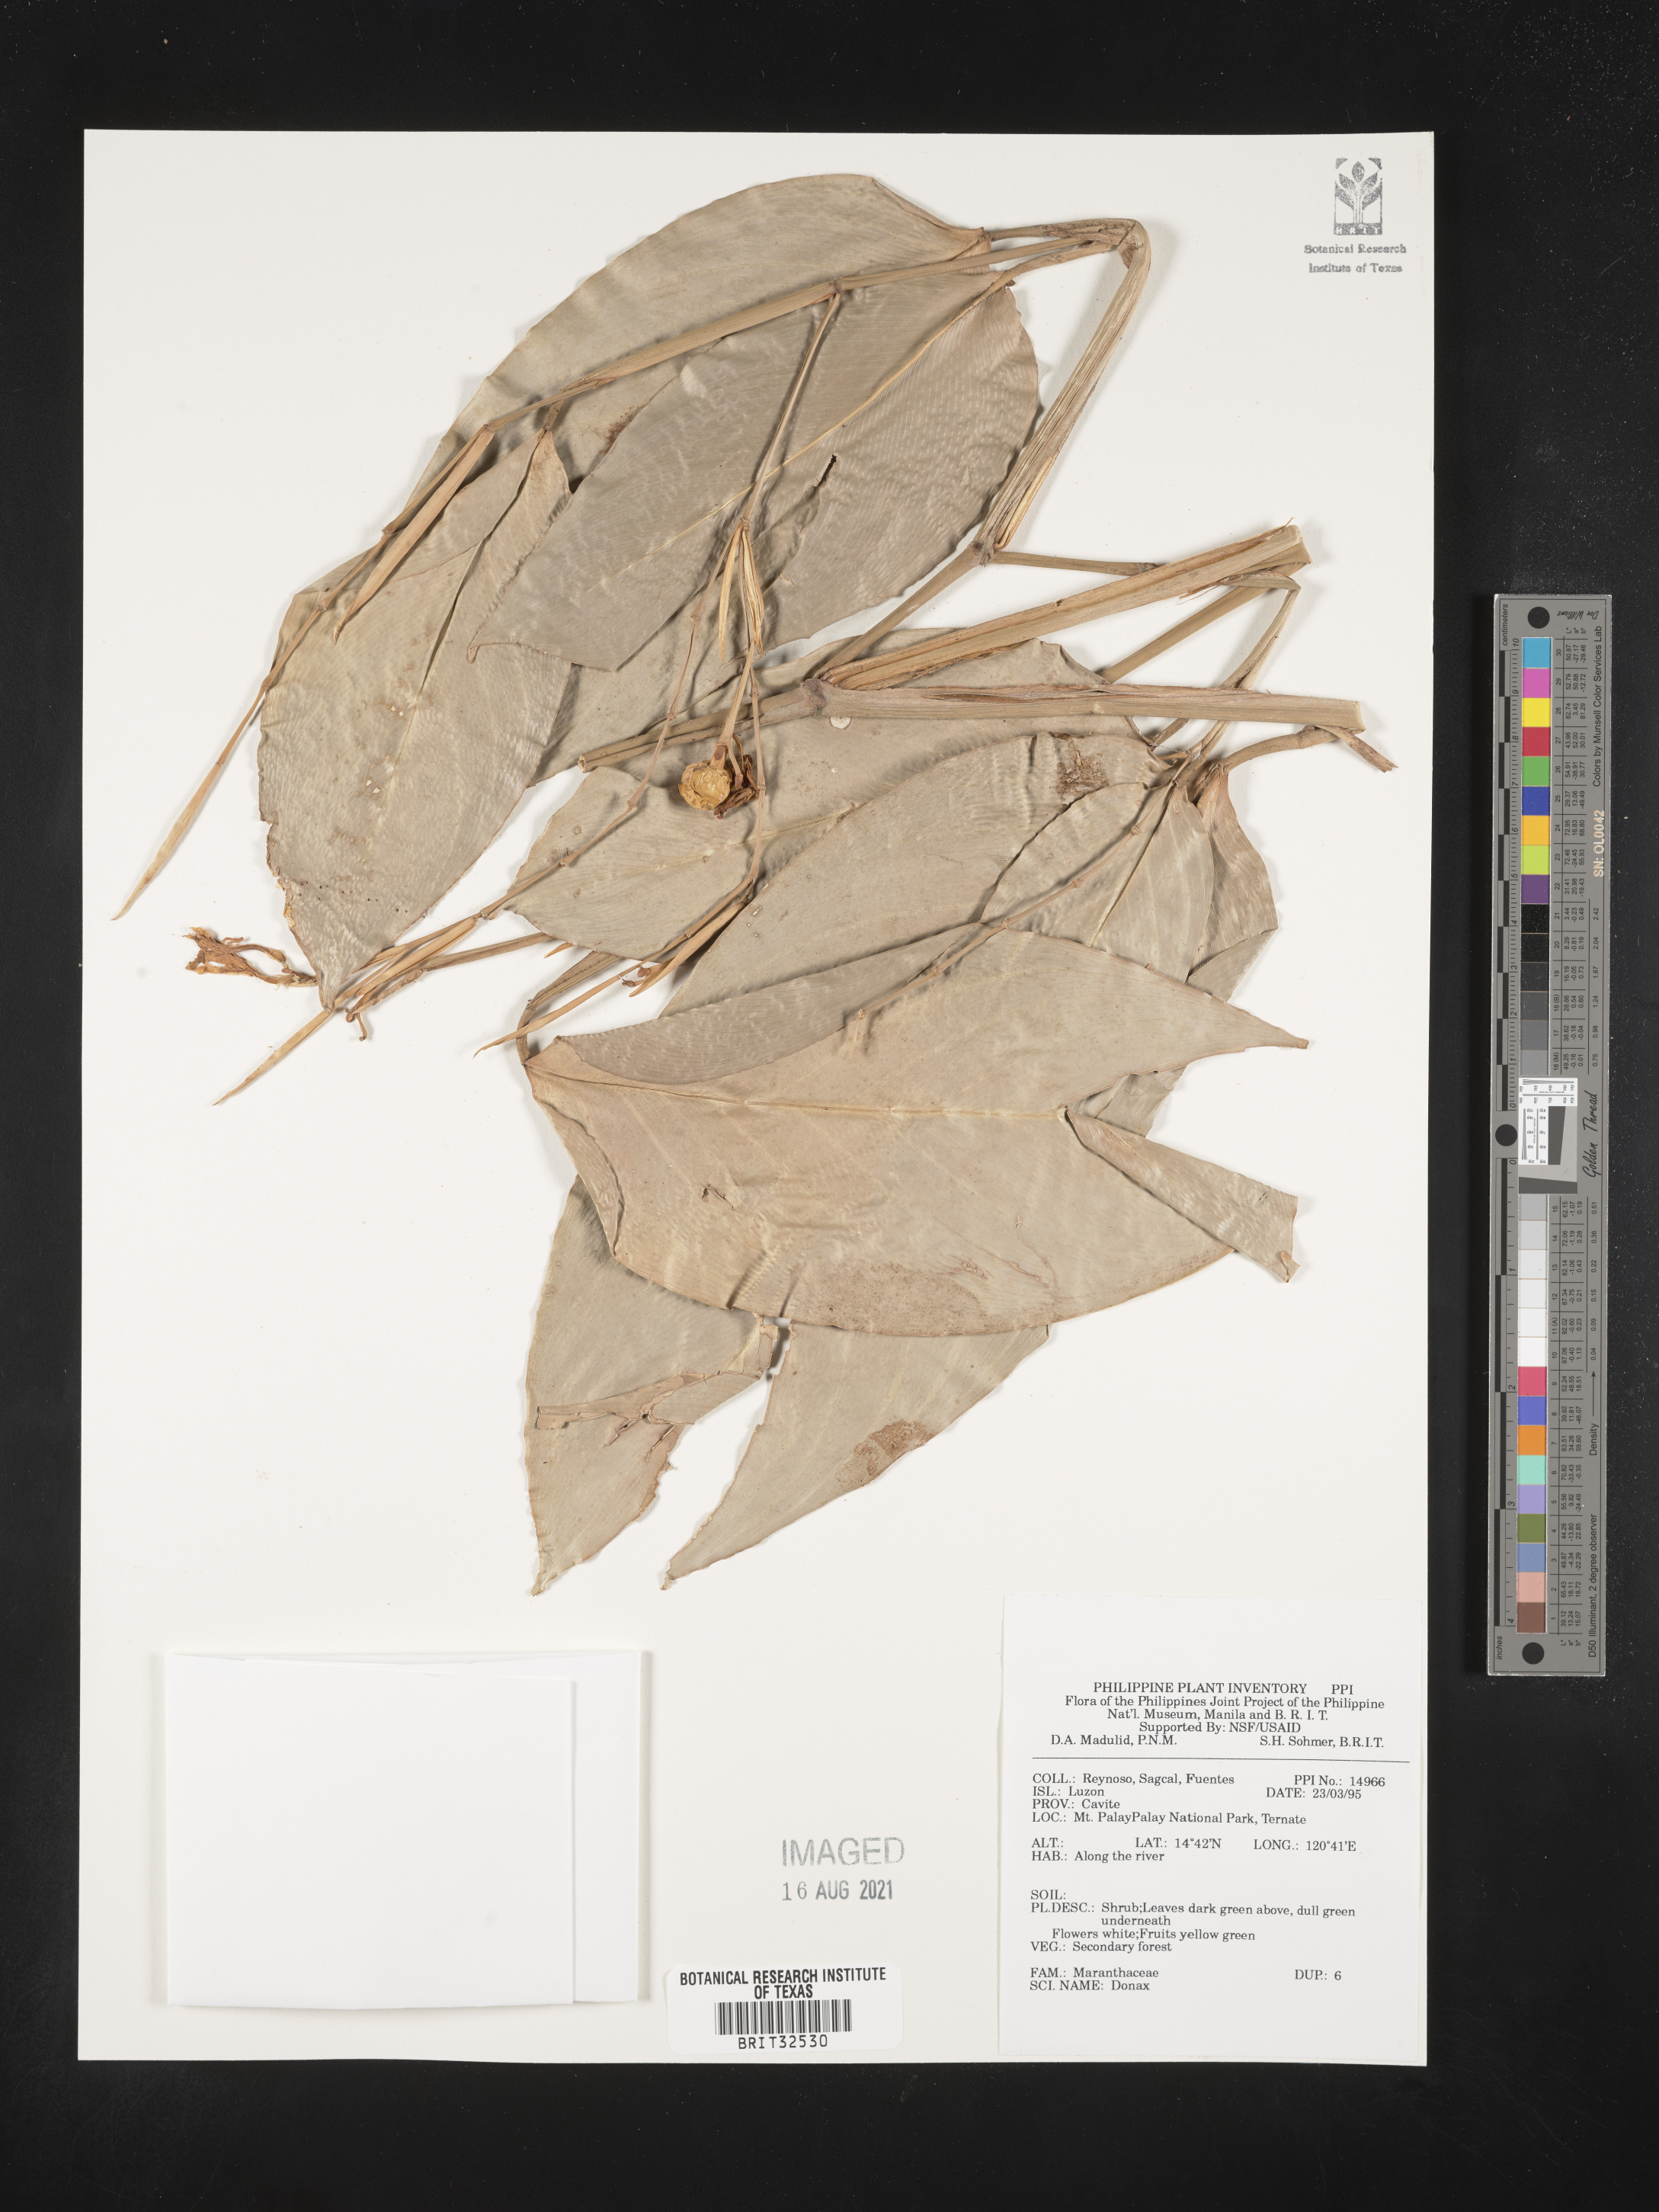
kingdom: Plantae
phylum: Tracheophyta
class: Liliopsida
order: Zingiberales
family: Marantaceae
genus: Donax
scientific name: Donax
